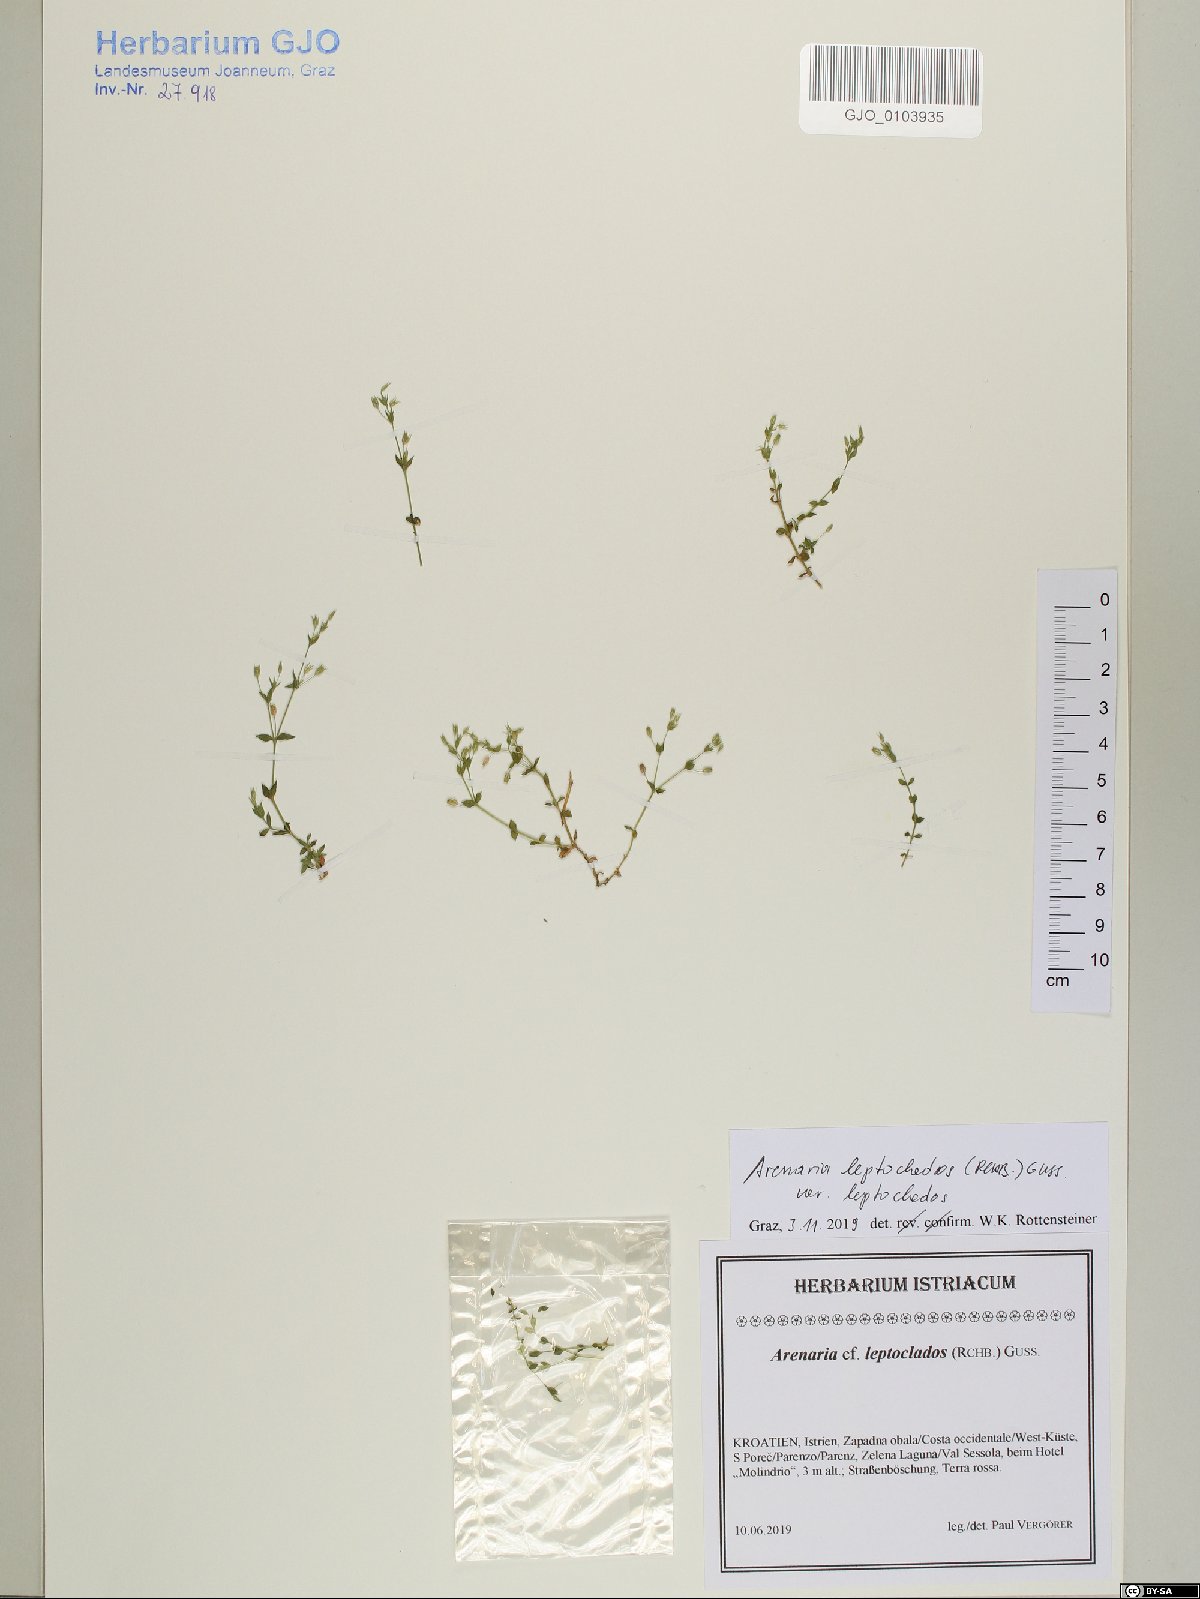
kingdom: Plantae
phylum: Tracheophyta
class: Magnoliopsida
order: Caryophyllales
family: Caryophyllaceae
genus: Arenaria
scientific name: Arenaria leptoclados
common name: Thyme-leaved sandwort
